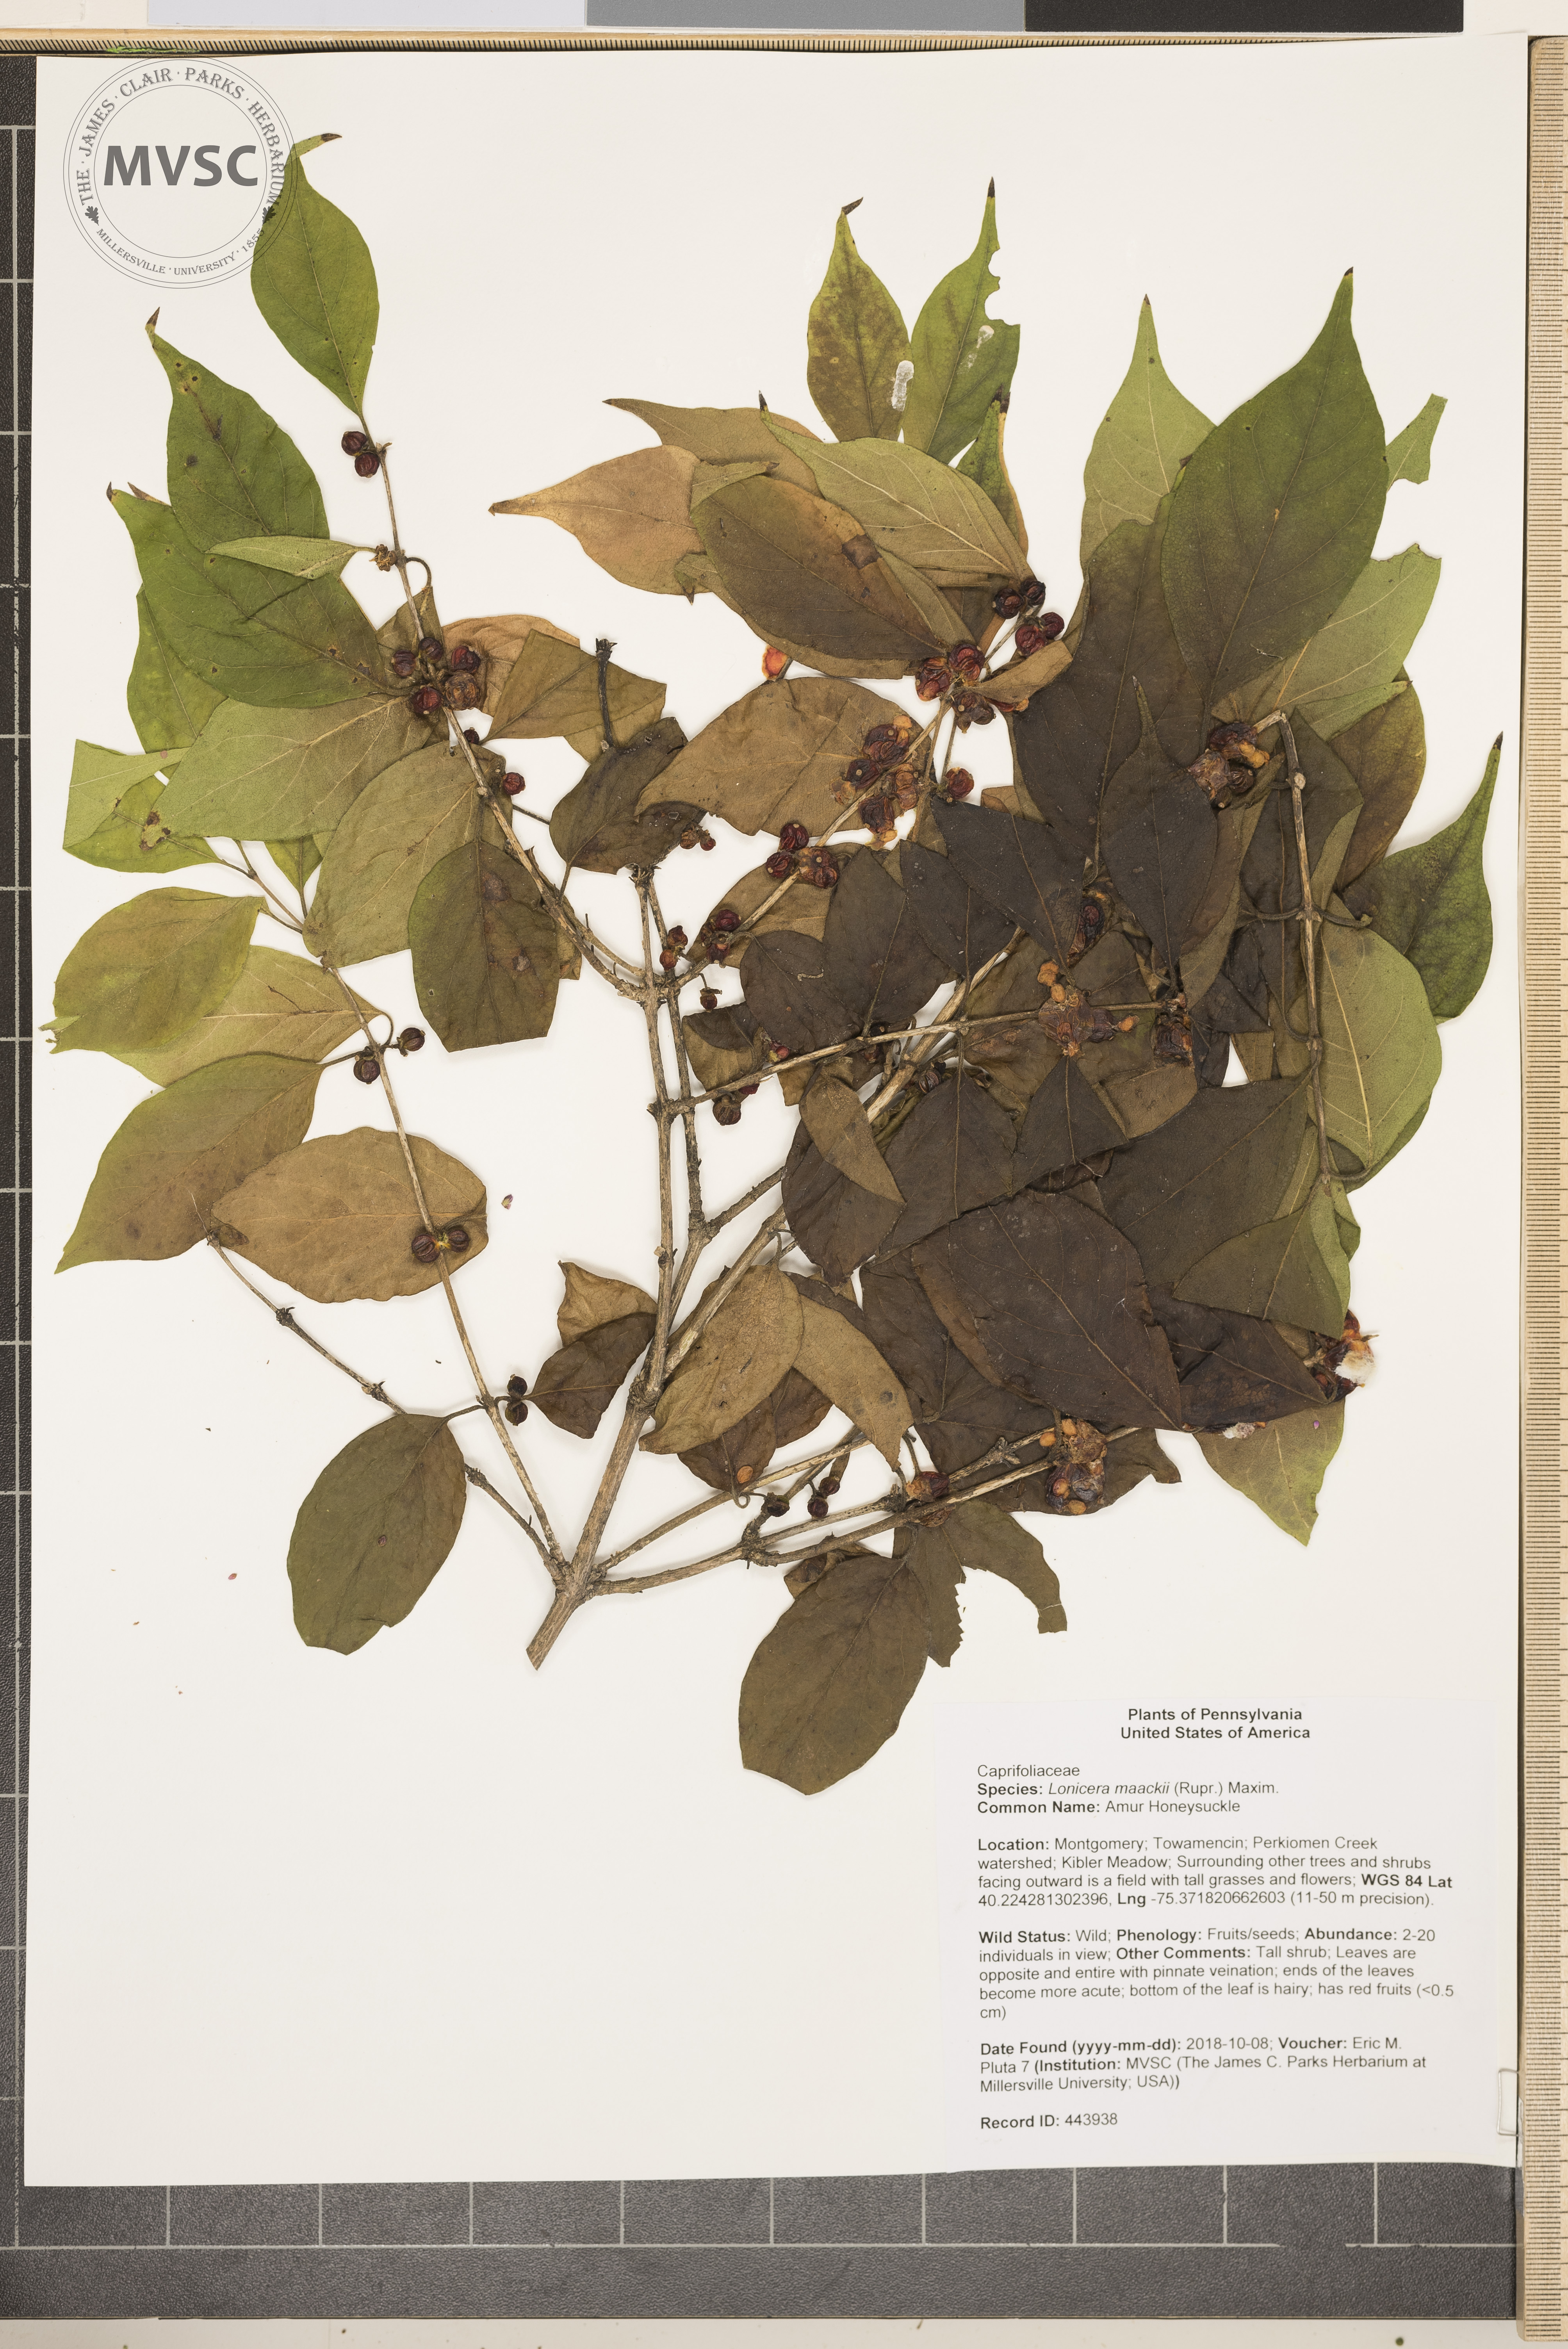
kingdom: Plantae
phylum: Tracheophyta
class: Magnoliopsida
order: Dipsacales
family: Caprifoliaceae
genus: Lonicera
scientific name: Lonicera maackii
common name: Amur Honeysuckle
